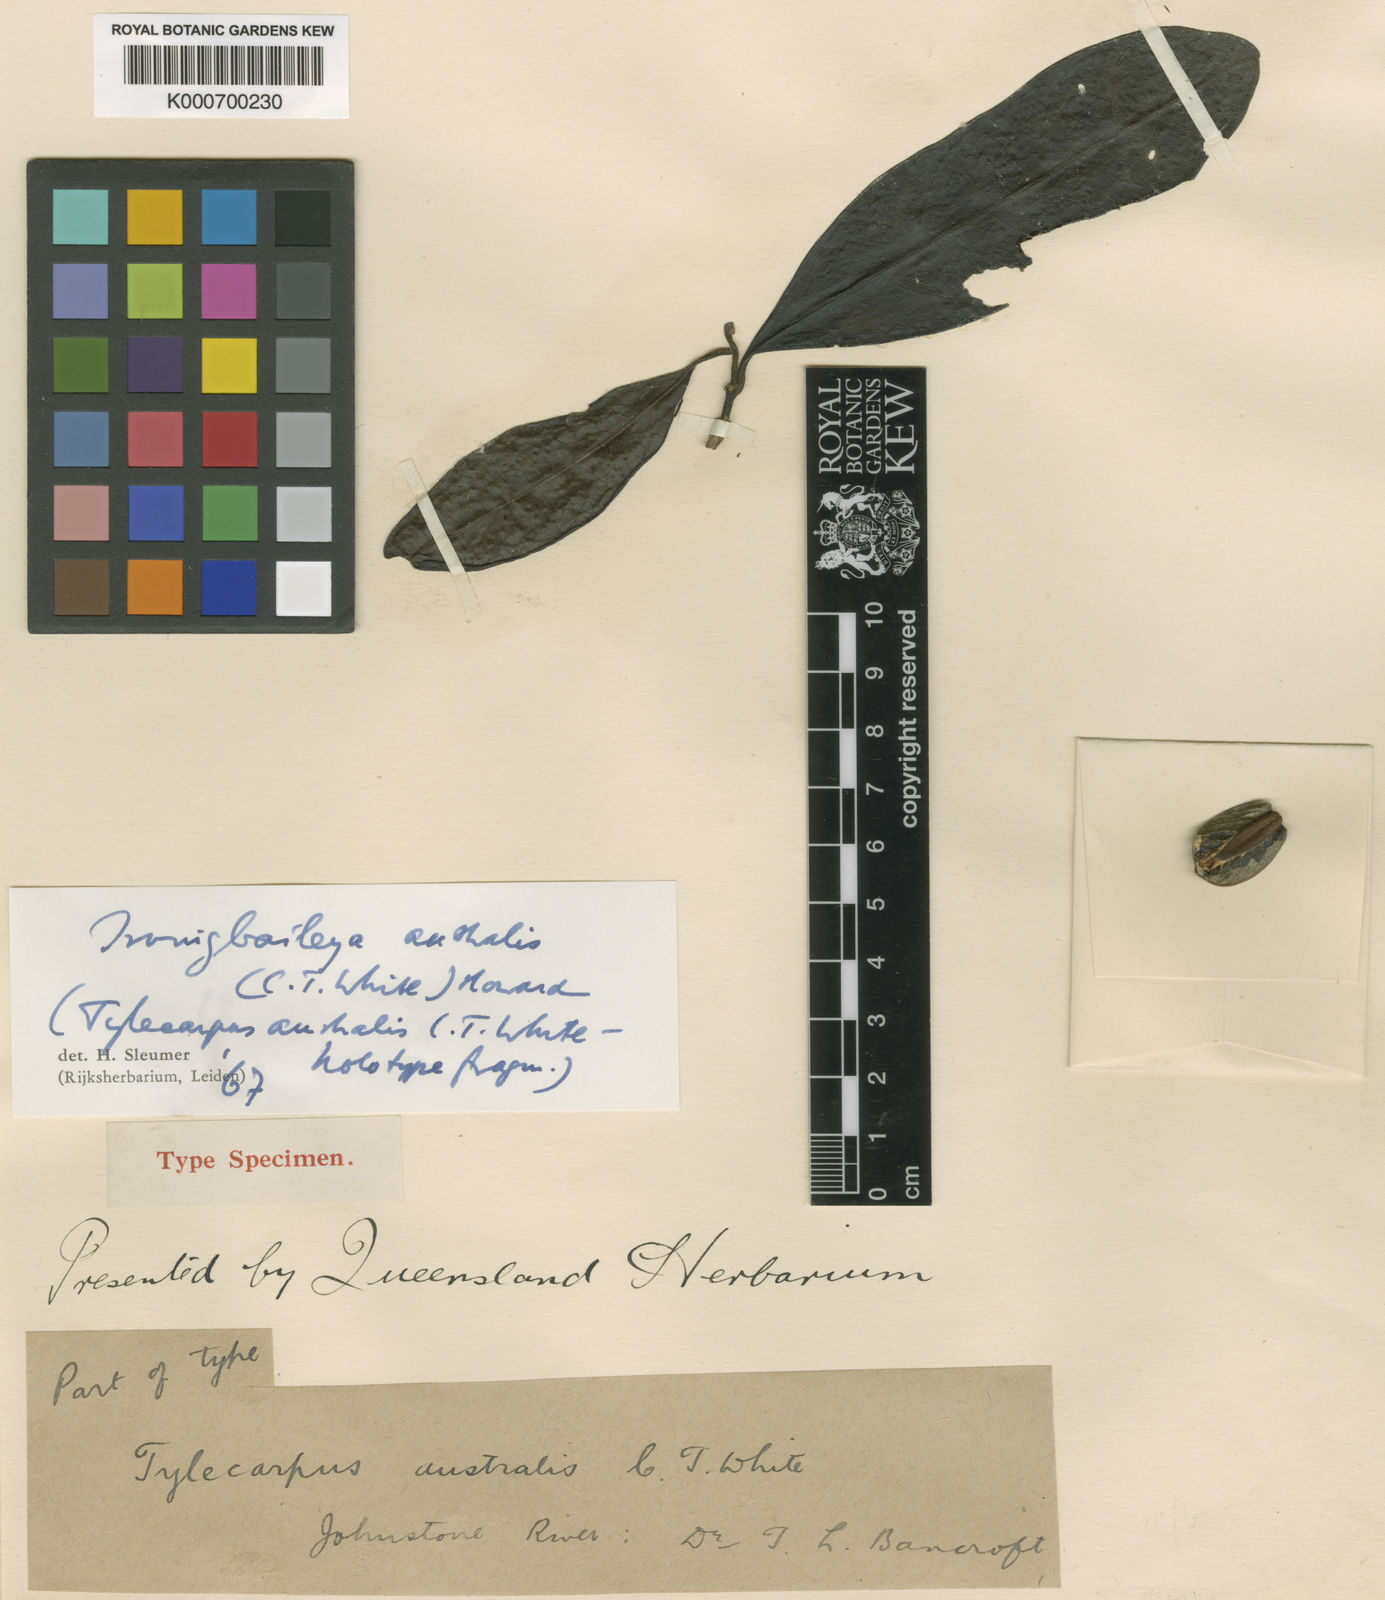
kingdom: Plantae
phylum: Tracheophyta
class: Magnoliopsida
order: Cardiopteridales
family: Stemonuraceae
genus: Irvingbaileya
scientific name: Irvingbaileya australis
